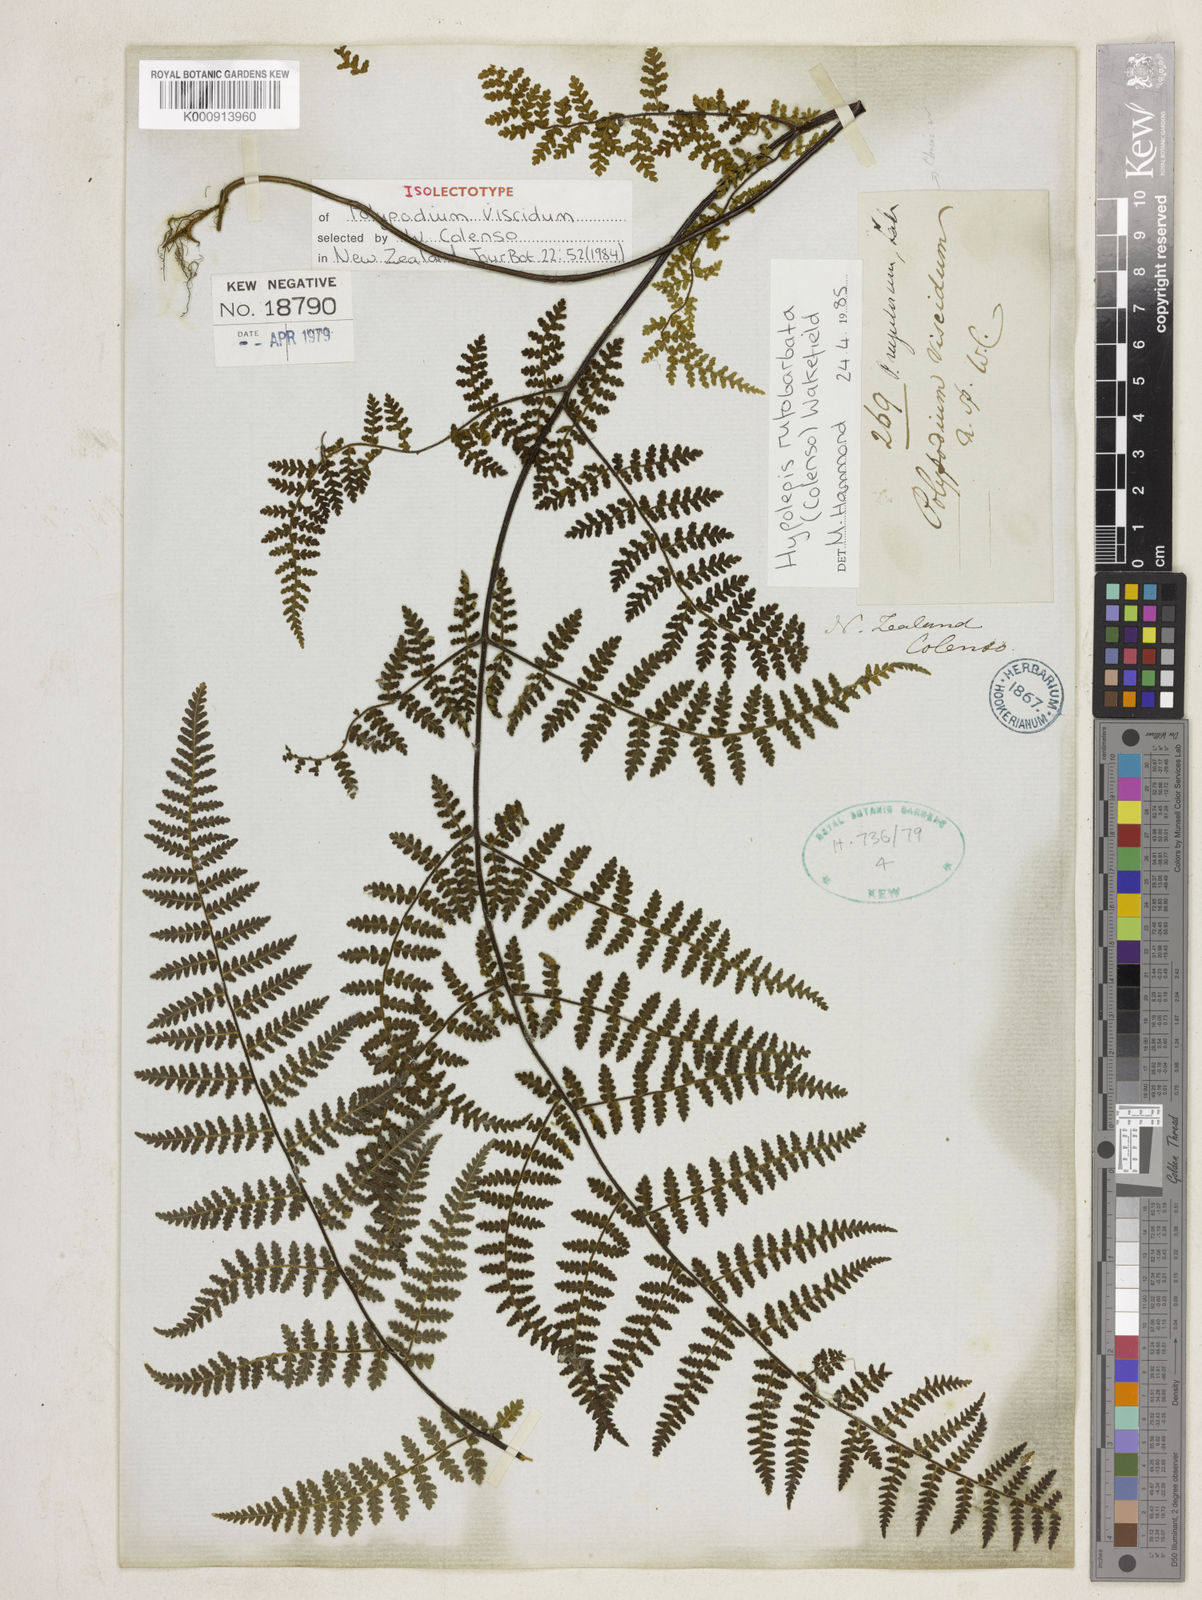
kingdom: Plantae
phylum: Tracheophyta
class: Polypodiopsida
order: Polypodiales
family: Dennstaedtiaceae
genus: Hypolepis
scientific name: Hypolepis rugosula
